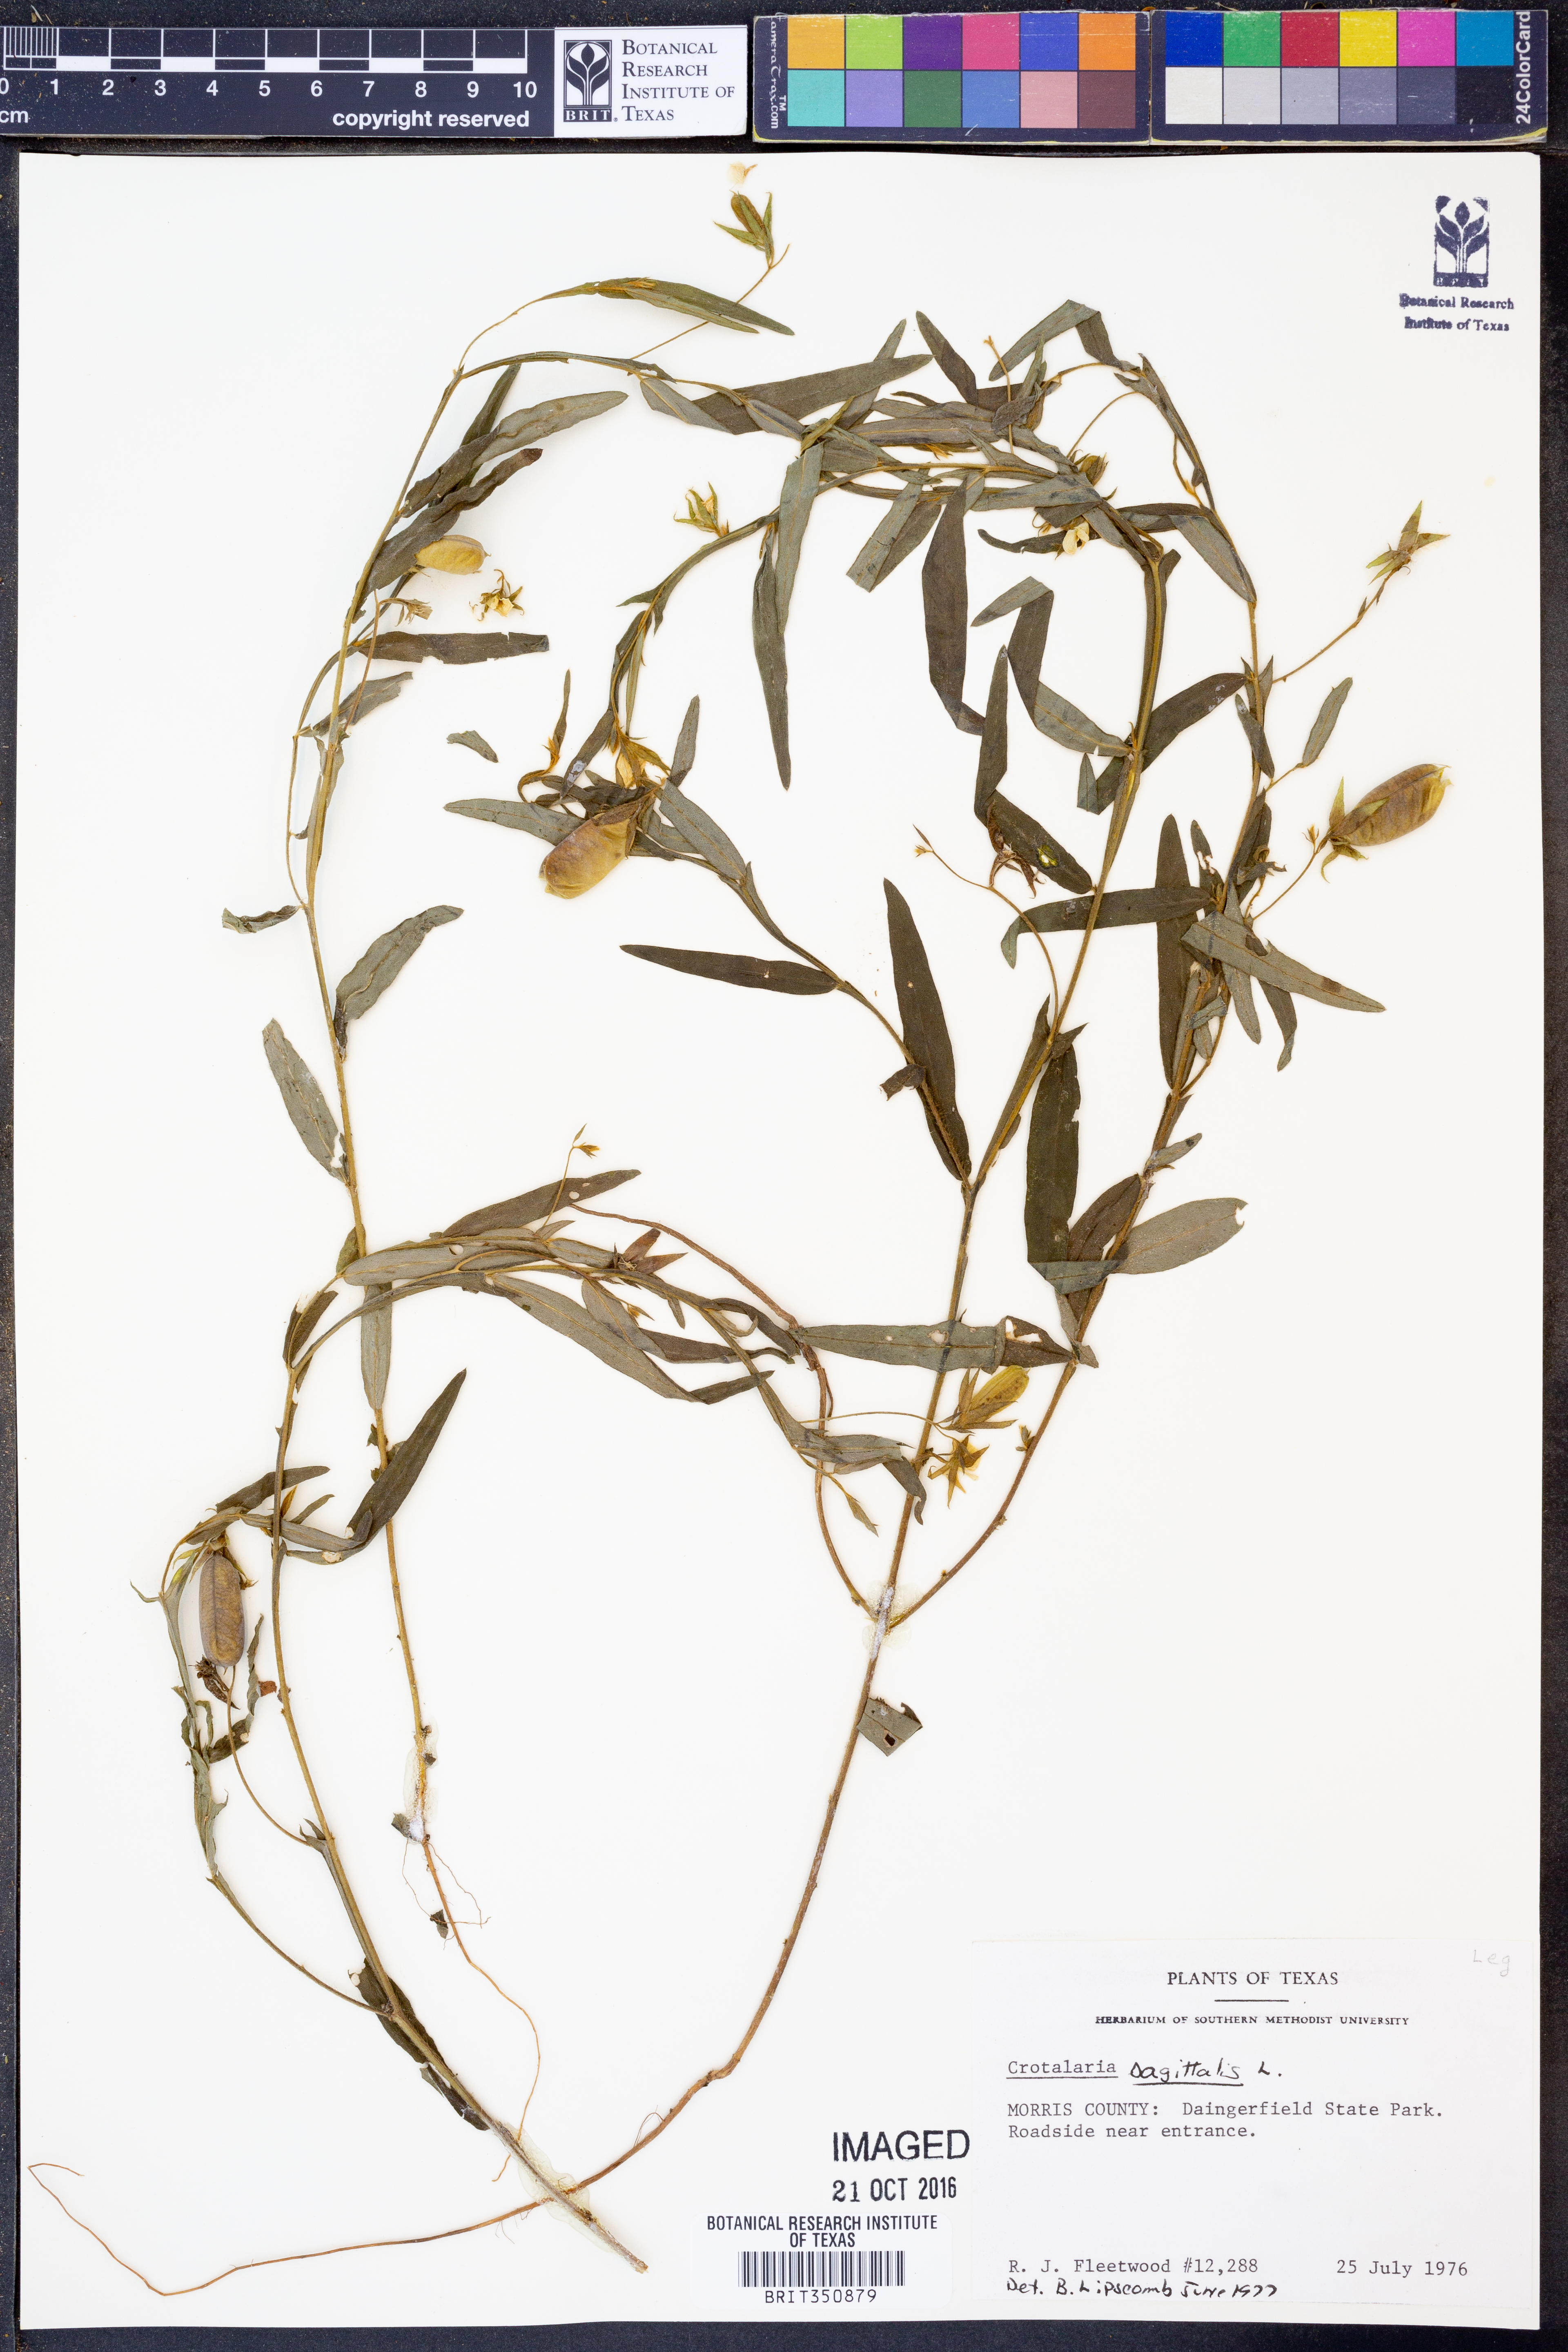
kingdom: Plantae
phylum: Tracheophyta
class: Magnoliopsida
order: Fabales
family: Fabaceae
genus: Crotalaria
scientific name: Crotalaria sagittalis
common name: Arrowhead rattlebox
